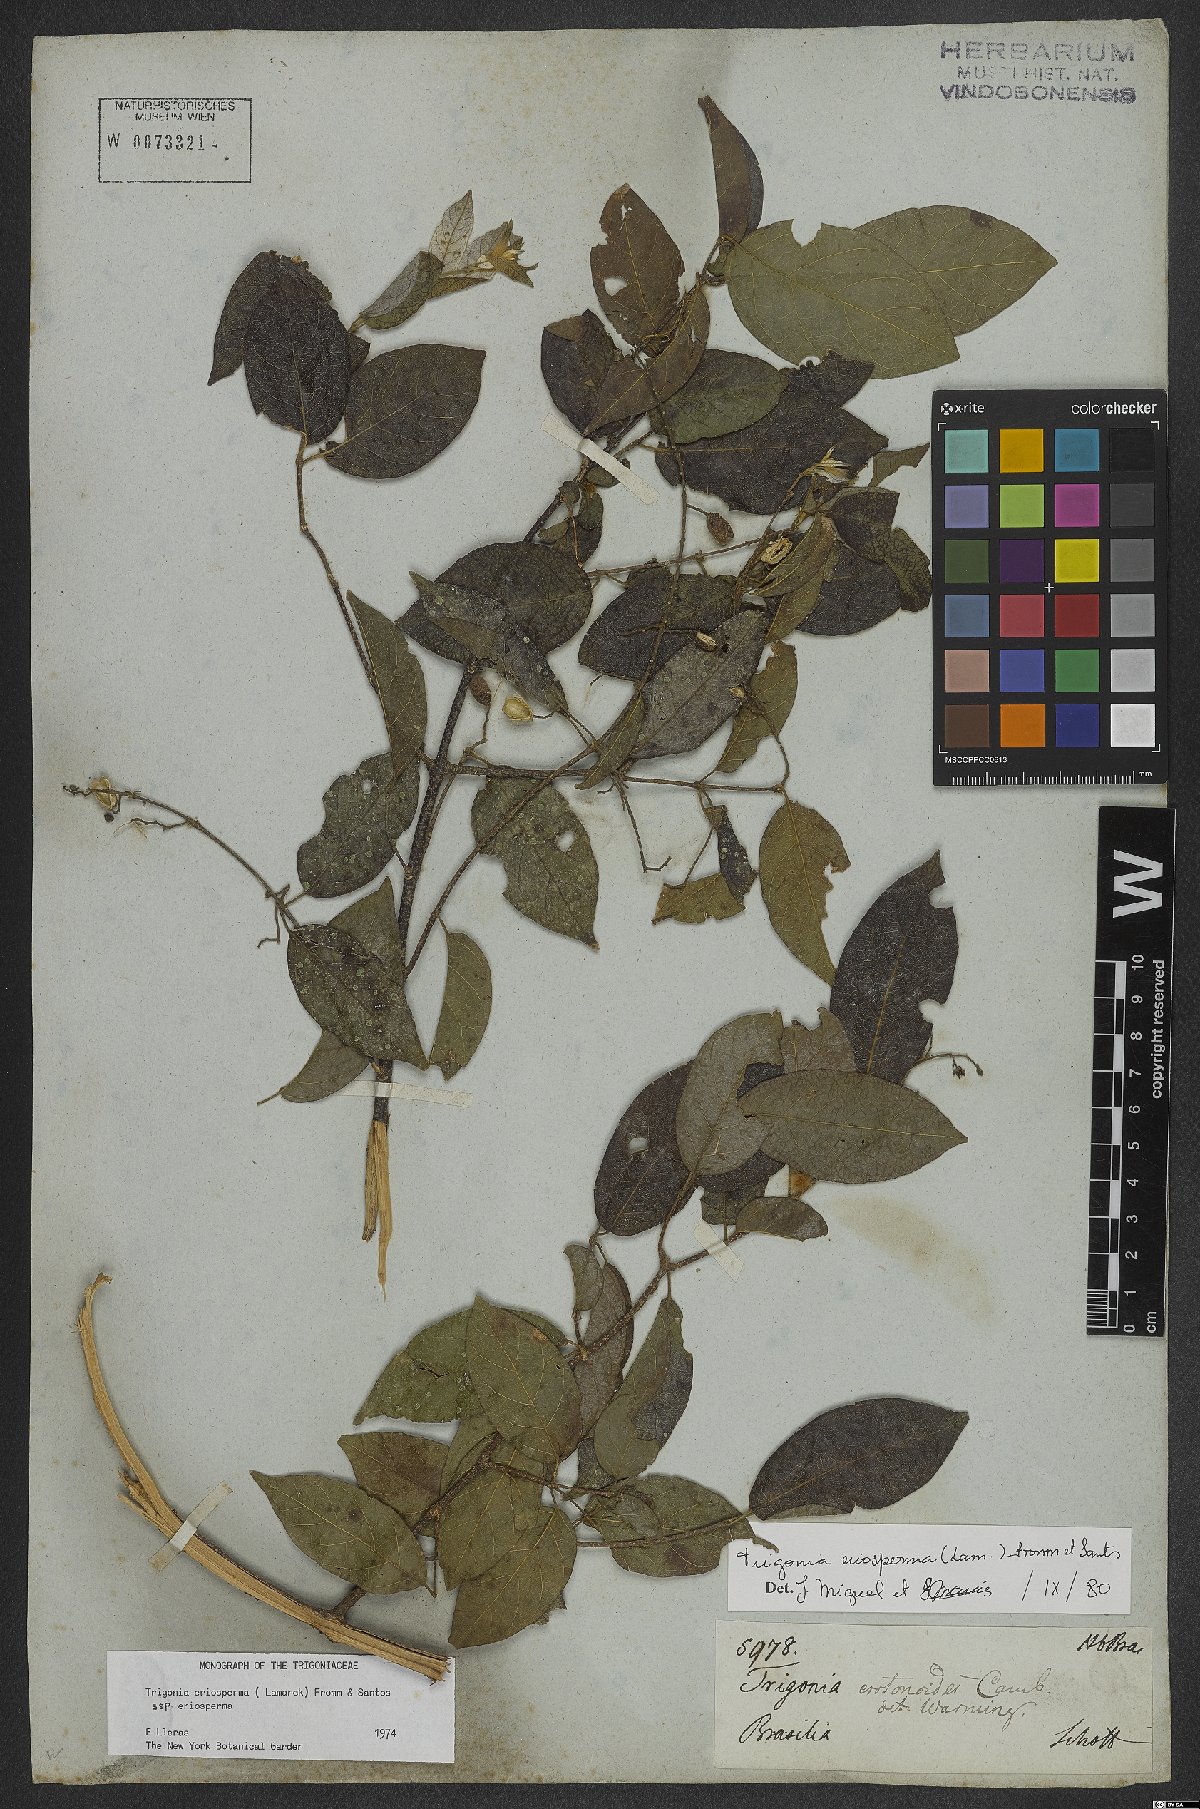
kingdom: Plantae
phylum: Tracheophyta
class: Magnoliopsida
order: Malpighiales
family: Trigoniaceae
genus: Trigonia
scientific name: Trigonia eriosperma
